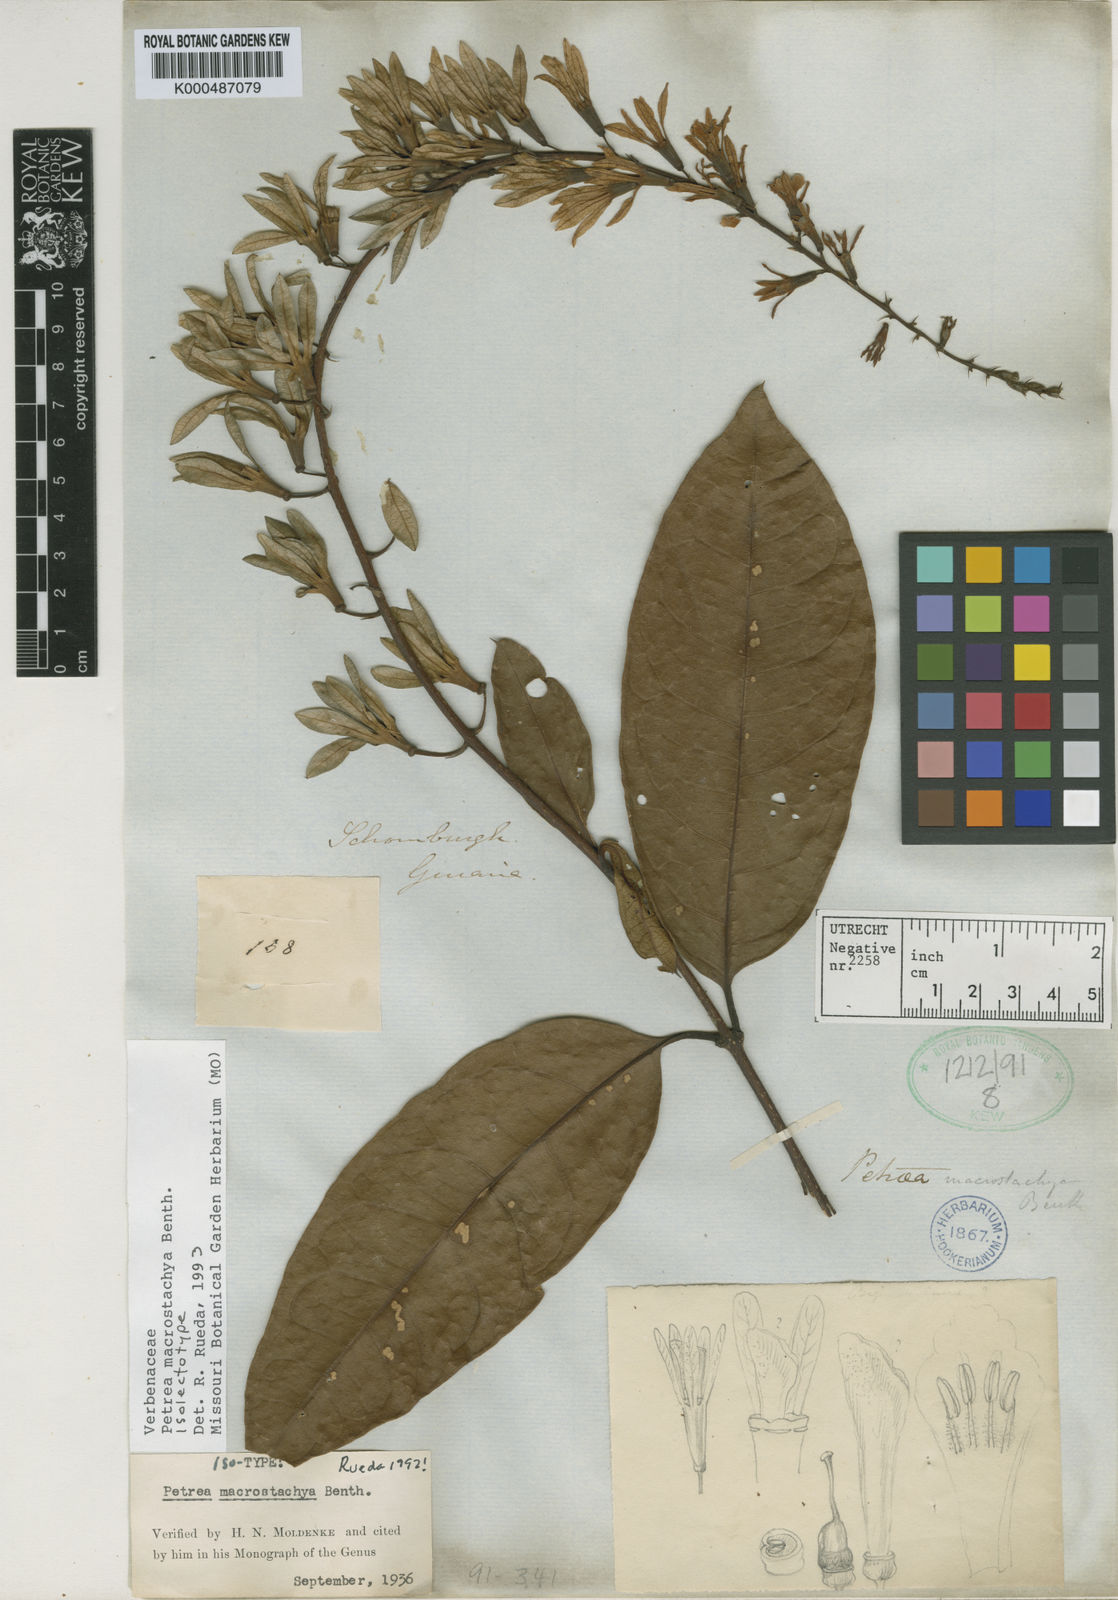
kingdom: Plantae
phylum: Tracheophyta
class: Magnoliopsida
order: Lamiales
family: Verbenaceae
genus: Petrea
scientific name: Petrea macrostachya
